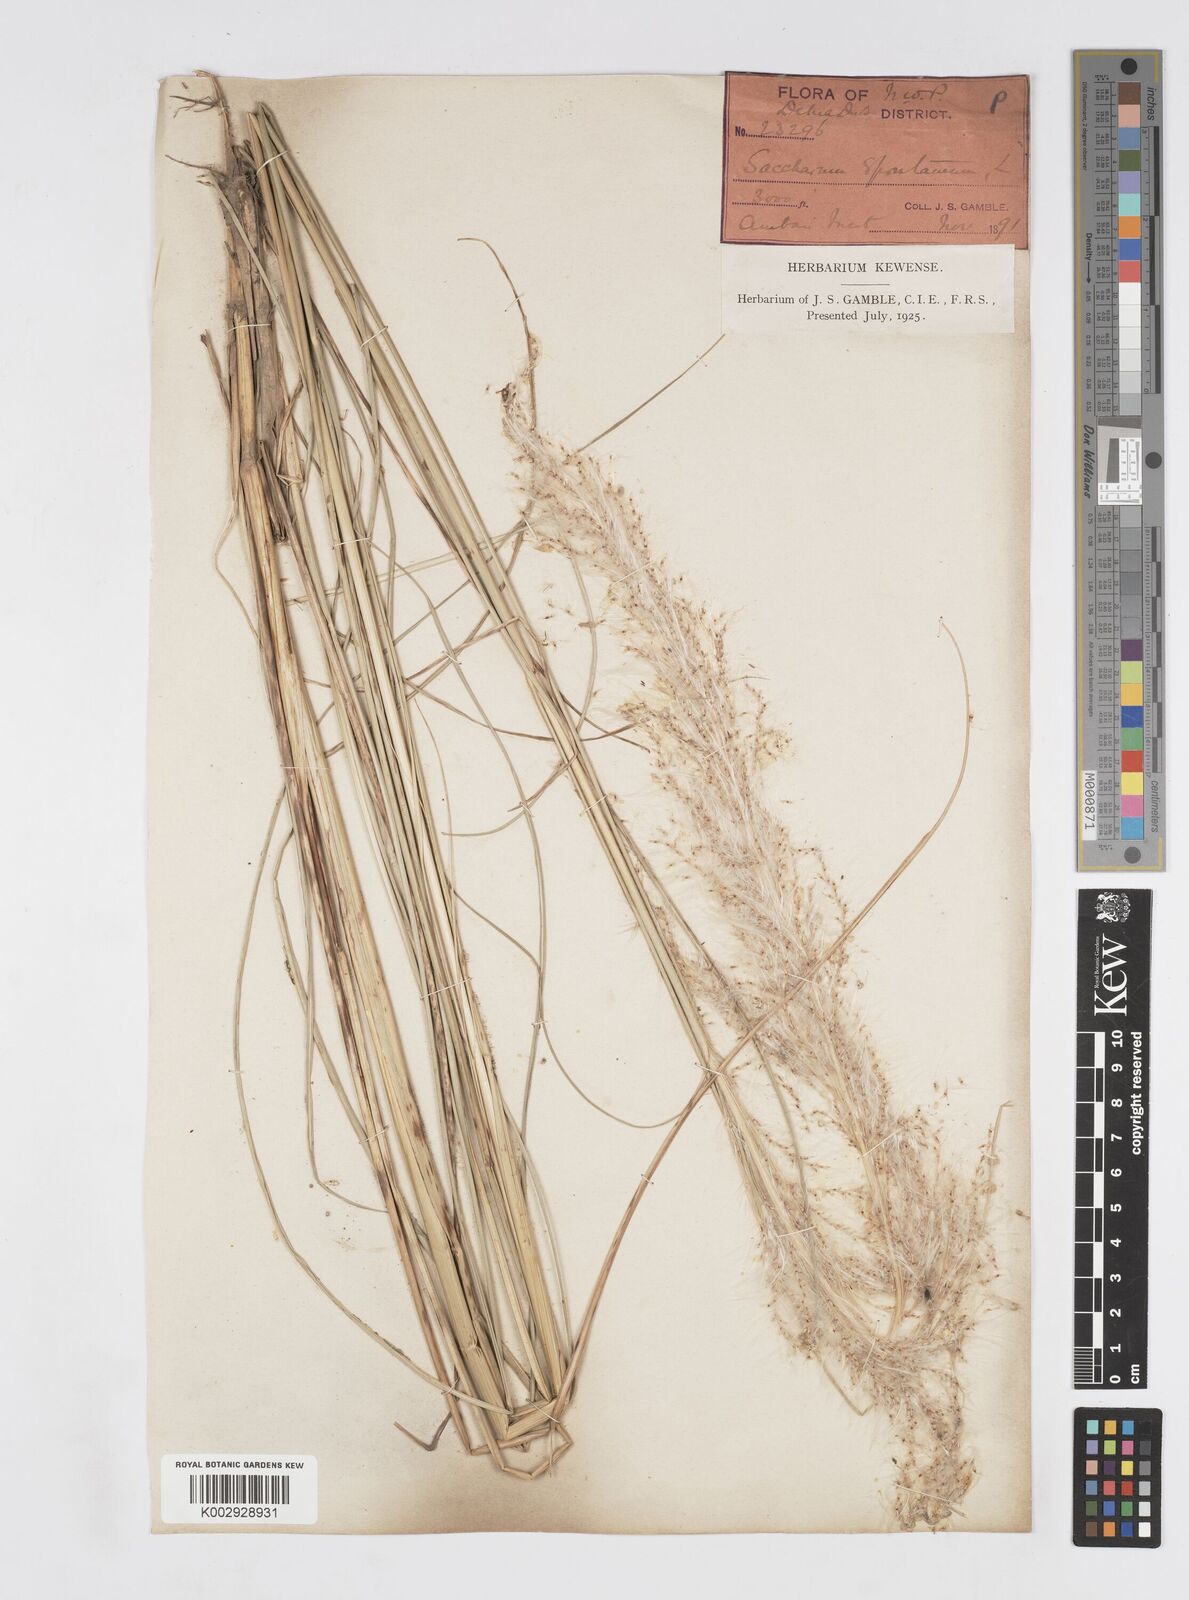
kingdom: Plantae
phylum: Tracheophyta
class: Liliopsida
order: Poales
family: Poaceae
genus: Saccharum
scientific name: Saccharum spontaneum
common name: Wild sugarcane
